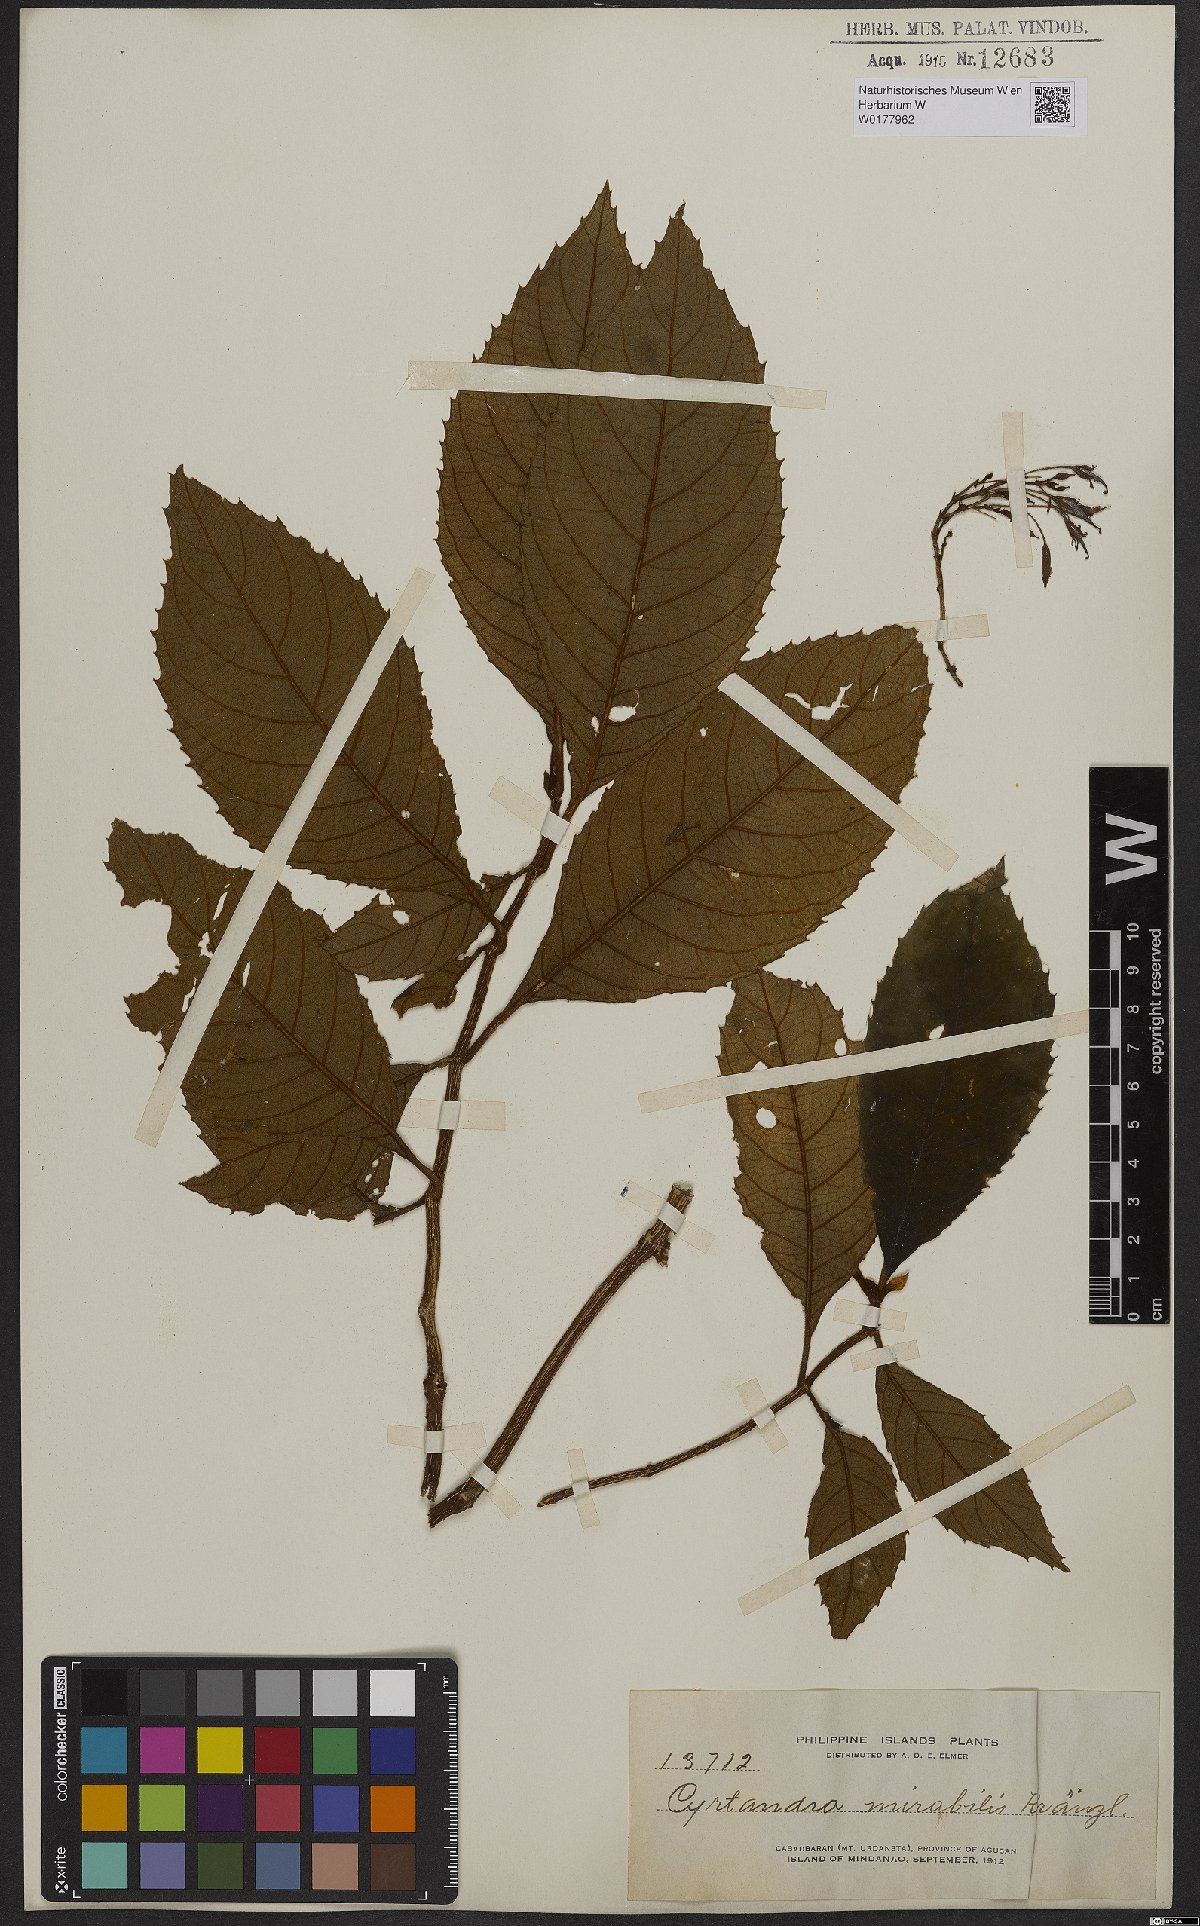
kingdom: Plantae
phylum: Tracheophyta
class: Magnoliopsida
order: Lamiales
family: Gesneriaceae
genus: Cyrtandra
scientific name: Cyrtandra mirabilis
